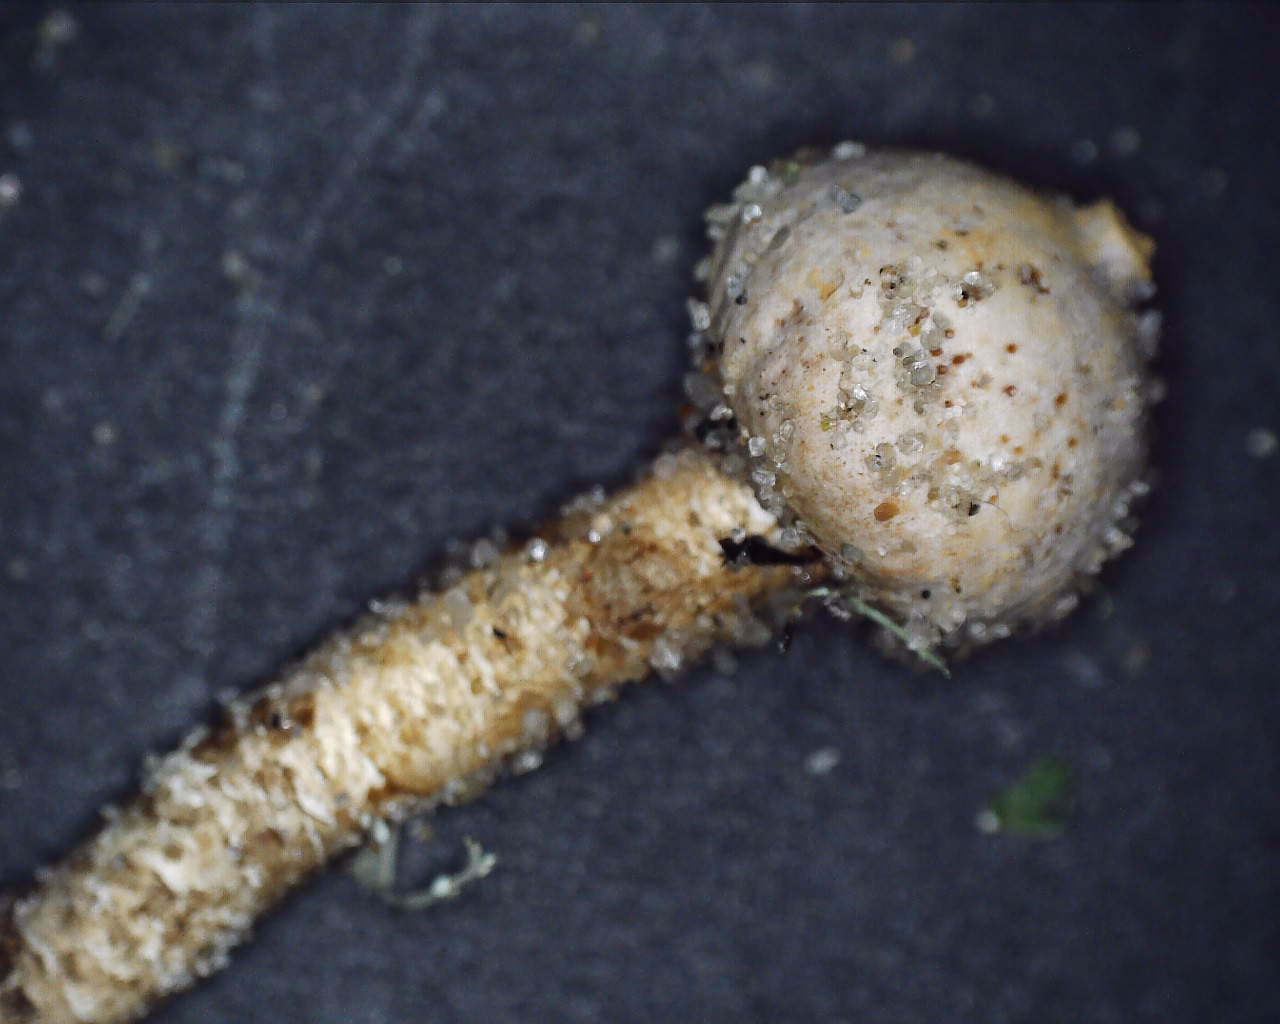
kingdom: Fungi
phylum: Basidiomycota
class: Agaricomycetes
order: Agaricales
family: Agaricaceae
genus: Tulostoma
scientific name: Tulostoma brumale
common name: vinter-stilkbovist
